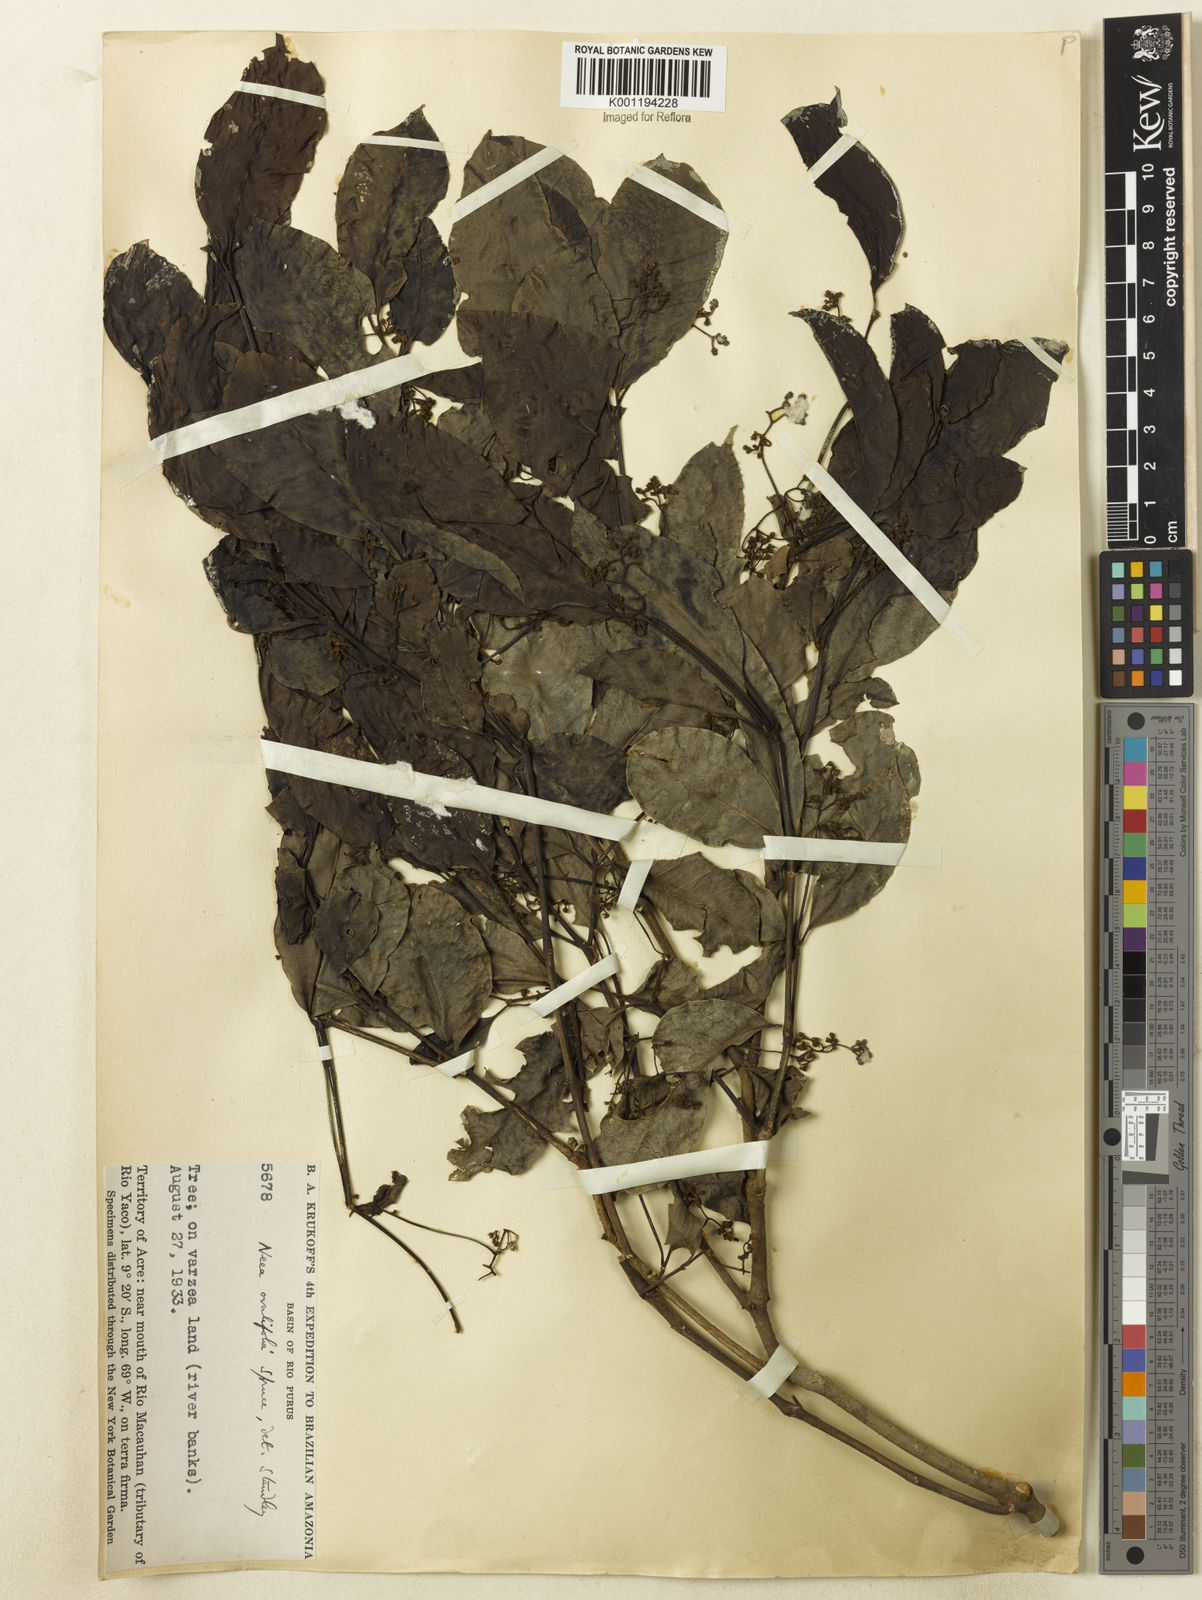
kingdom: Plantae
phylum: Tracheophyta
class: Magnoliopsida
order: Caryophyllales
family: Nyctaginaceae
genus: Neea
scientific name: Neea ovalifolia
